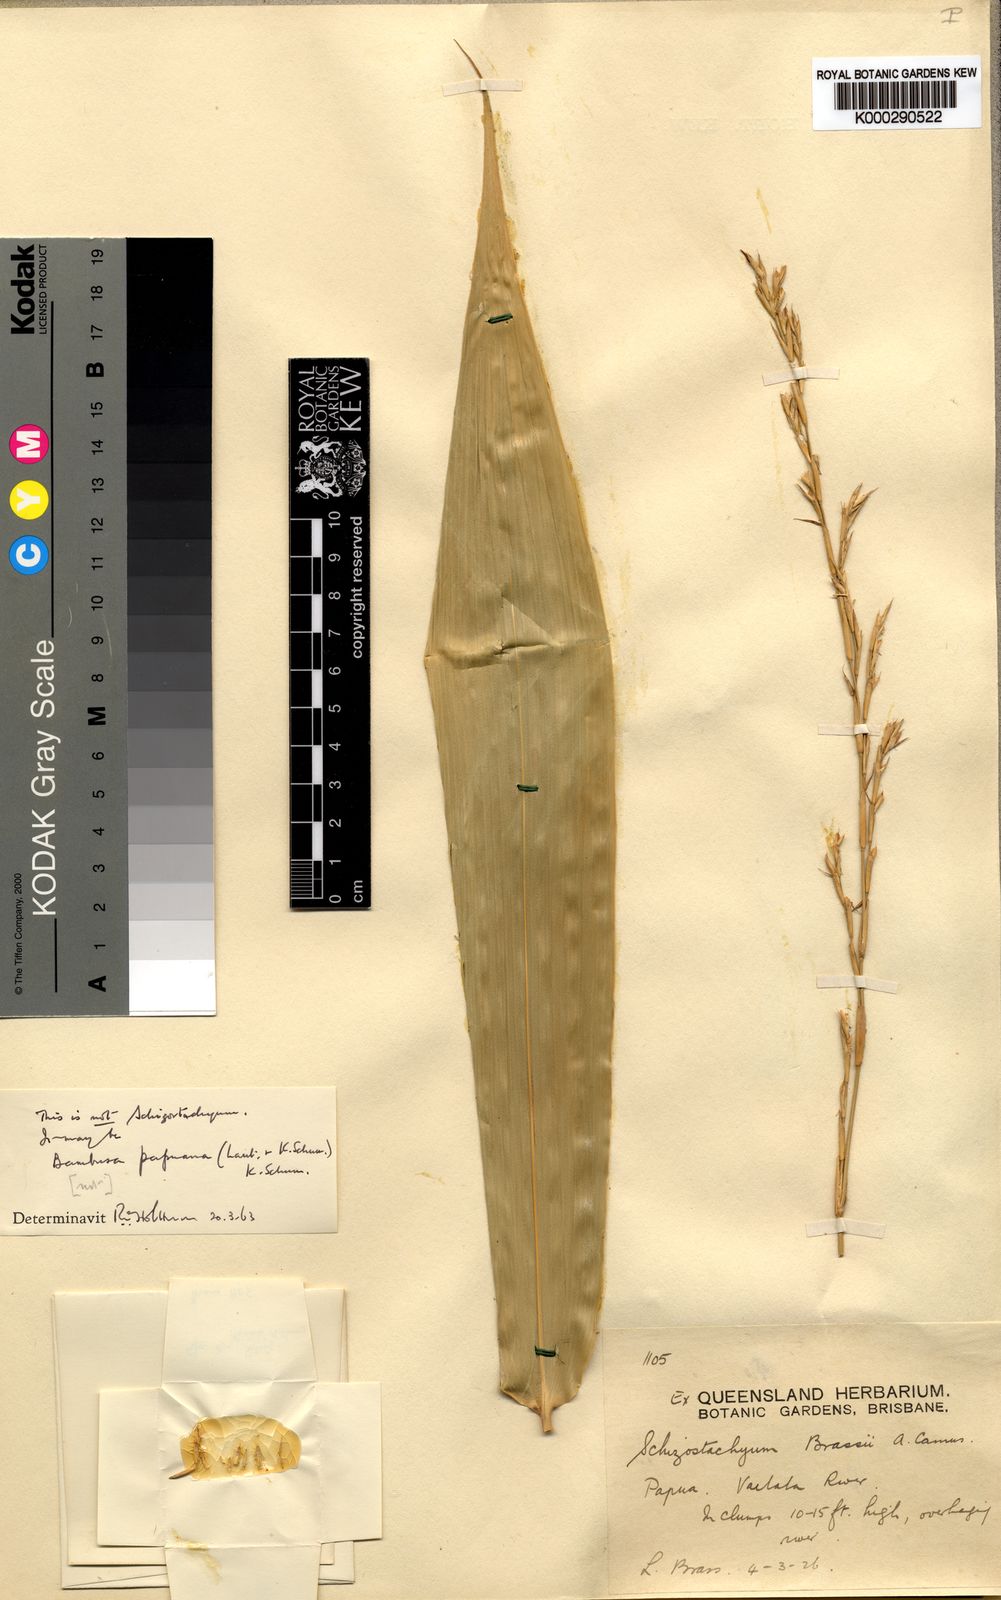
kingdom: Plantae
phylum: Tracheophyta
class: Liliopsida
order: Poales
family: Poaceae
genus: Bambusa
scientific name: Bambusa riparia
